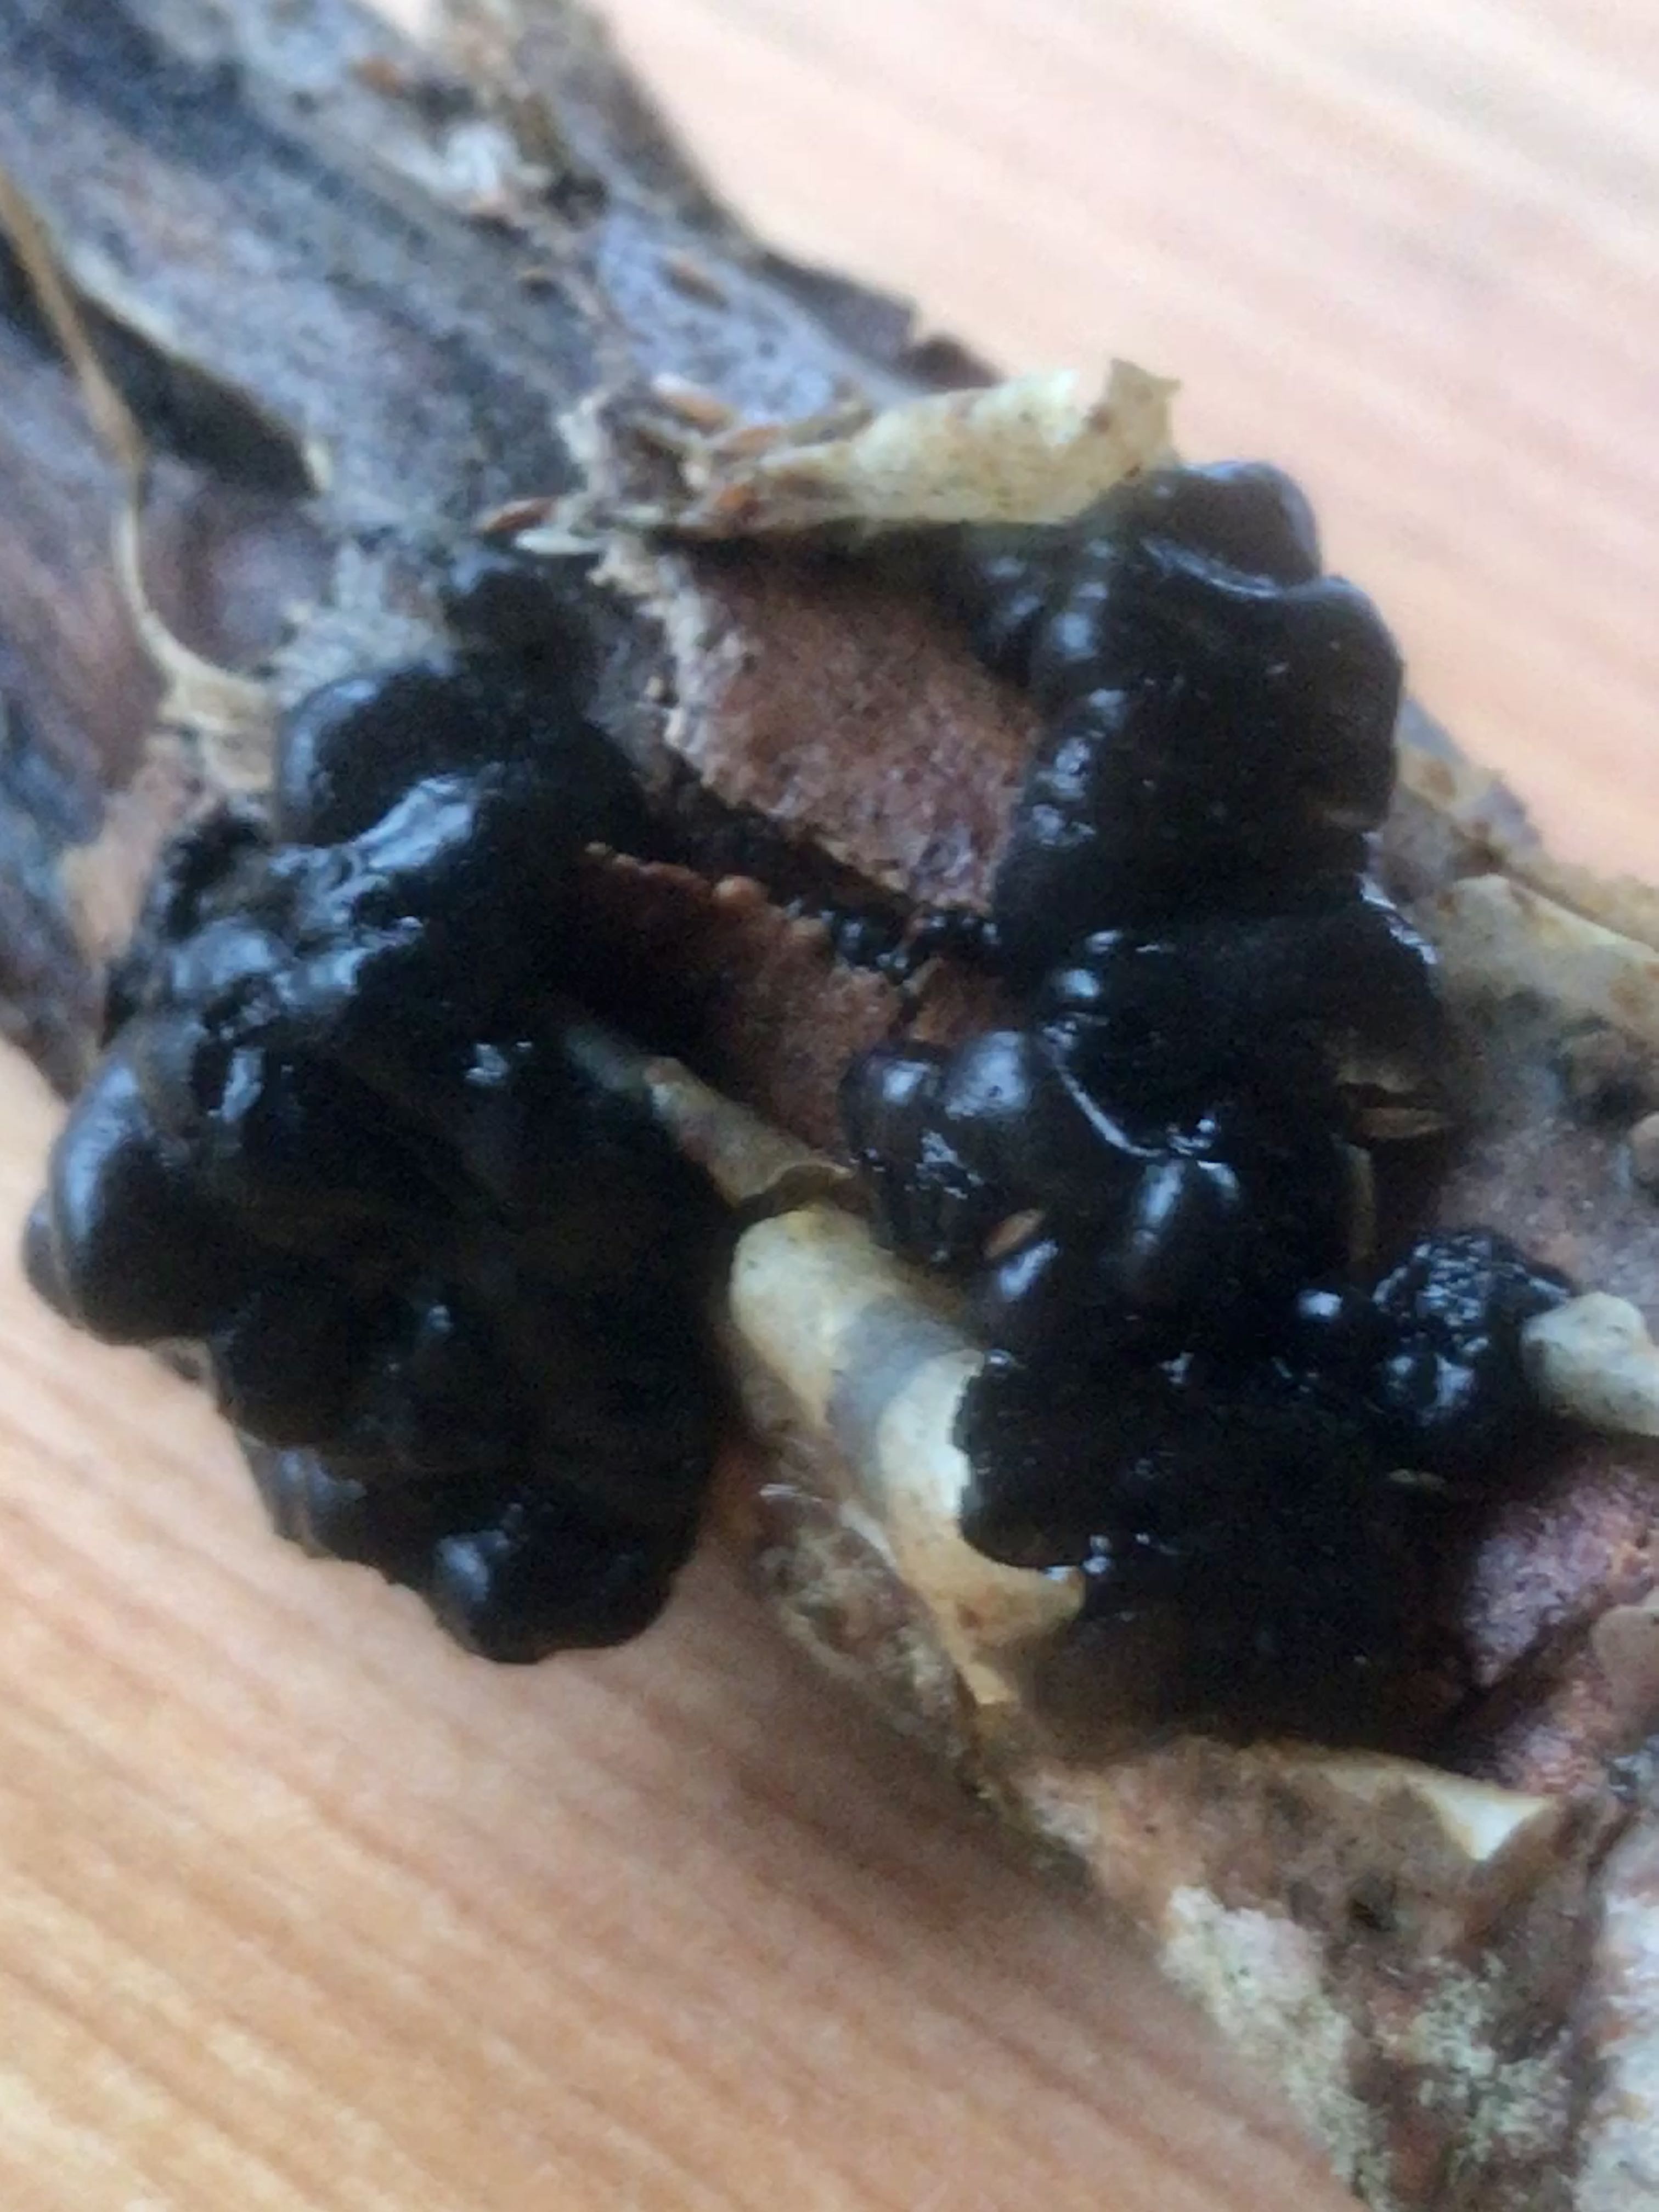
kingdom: Fungi
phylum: Basidiomycota
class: Agaricomycetes
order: Auriculariales
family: Auriculariaceae
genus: Exidia
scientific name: Exidia nigricans
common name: almindelig bævretop
